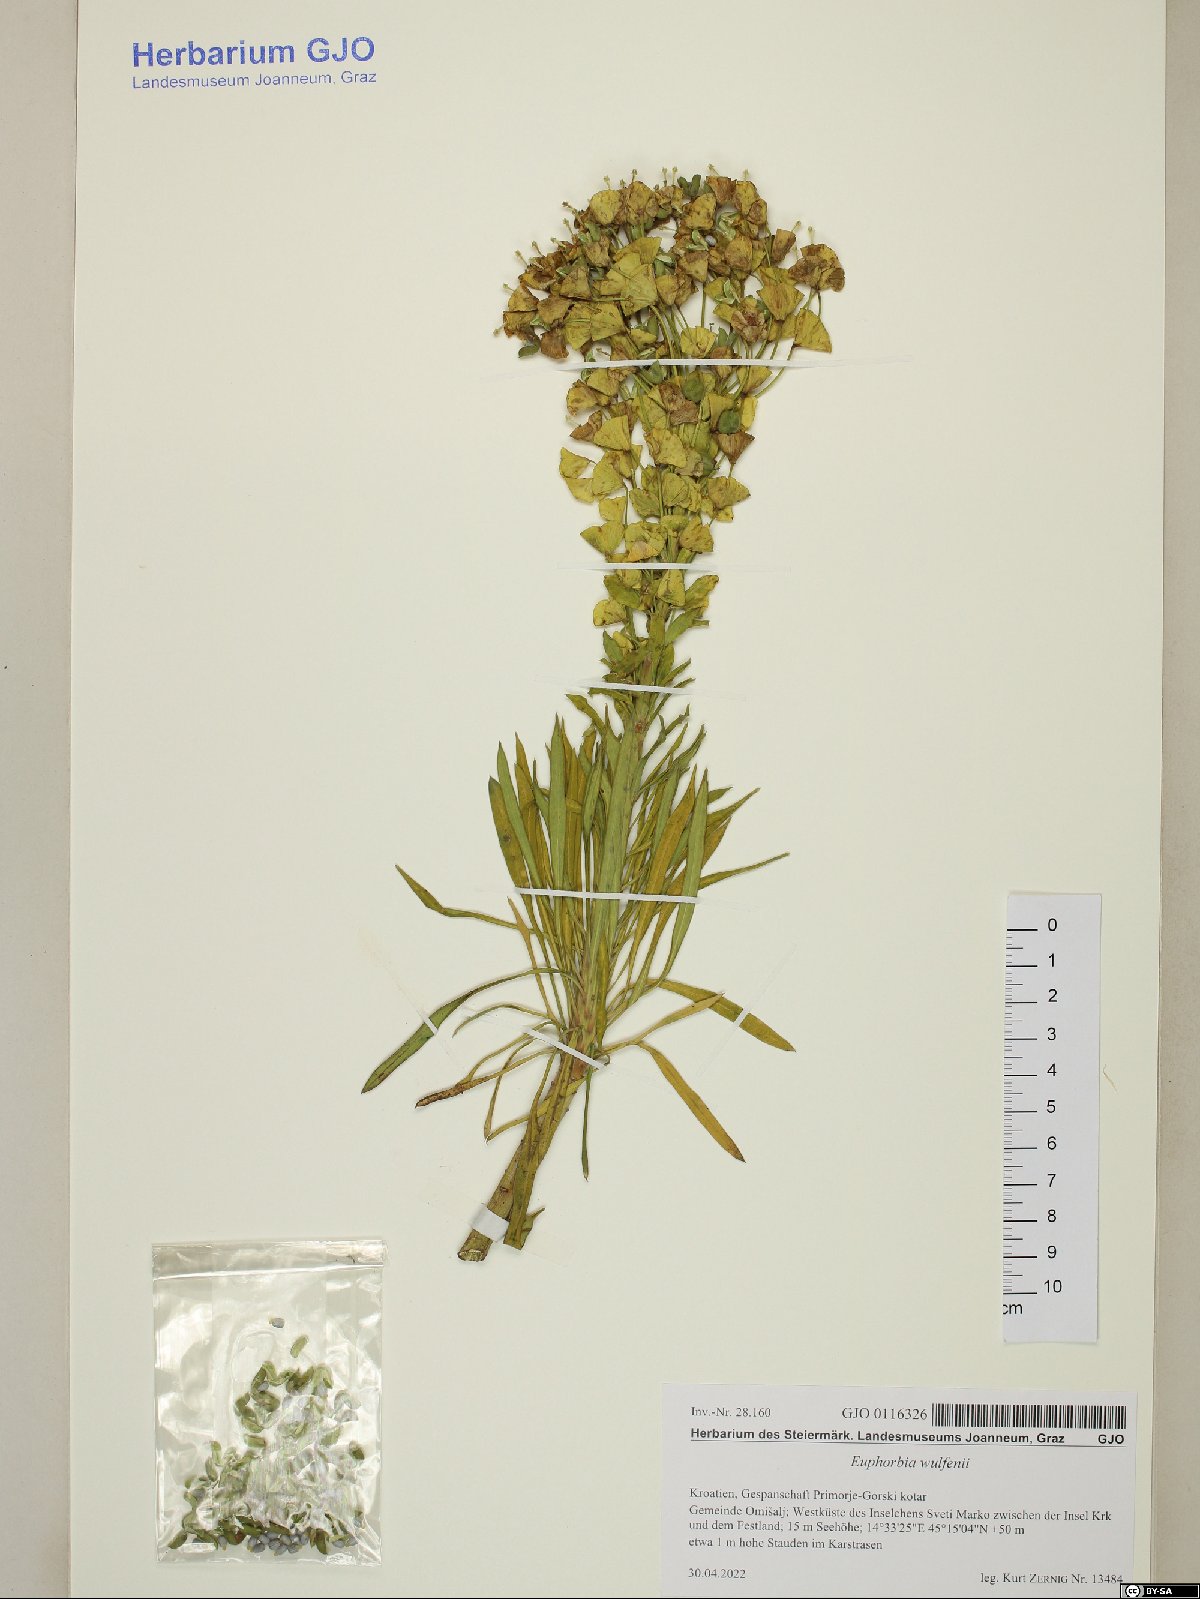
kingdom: Plantae
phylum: Tracheophyta
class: Magnoliopsida
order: Malpighiales
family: Euphorbiaceae
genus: Euphorbia
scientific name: Euphorbia characias
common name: Mediterranean spurge
